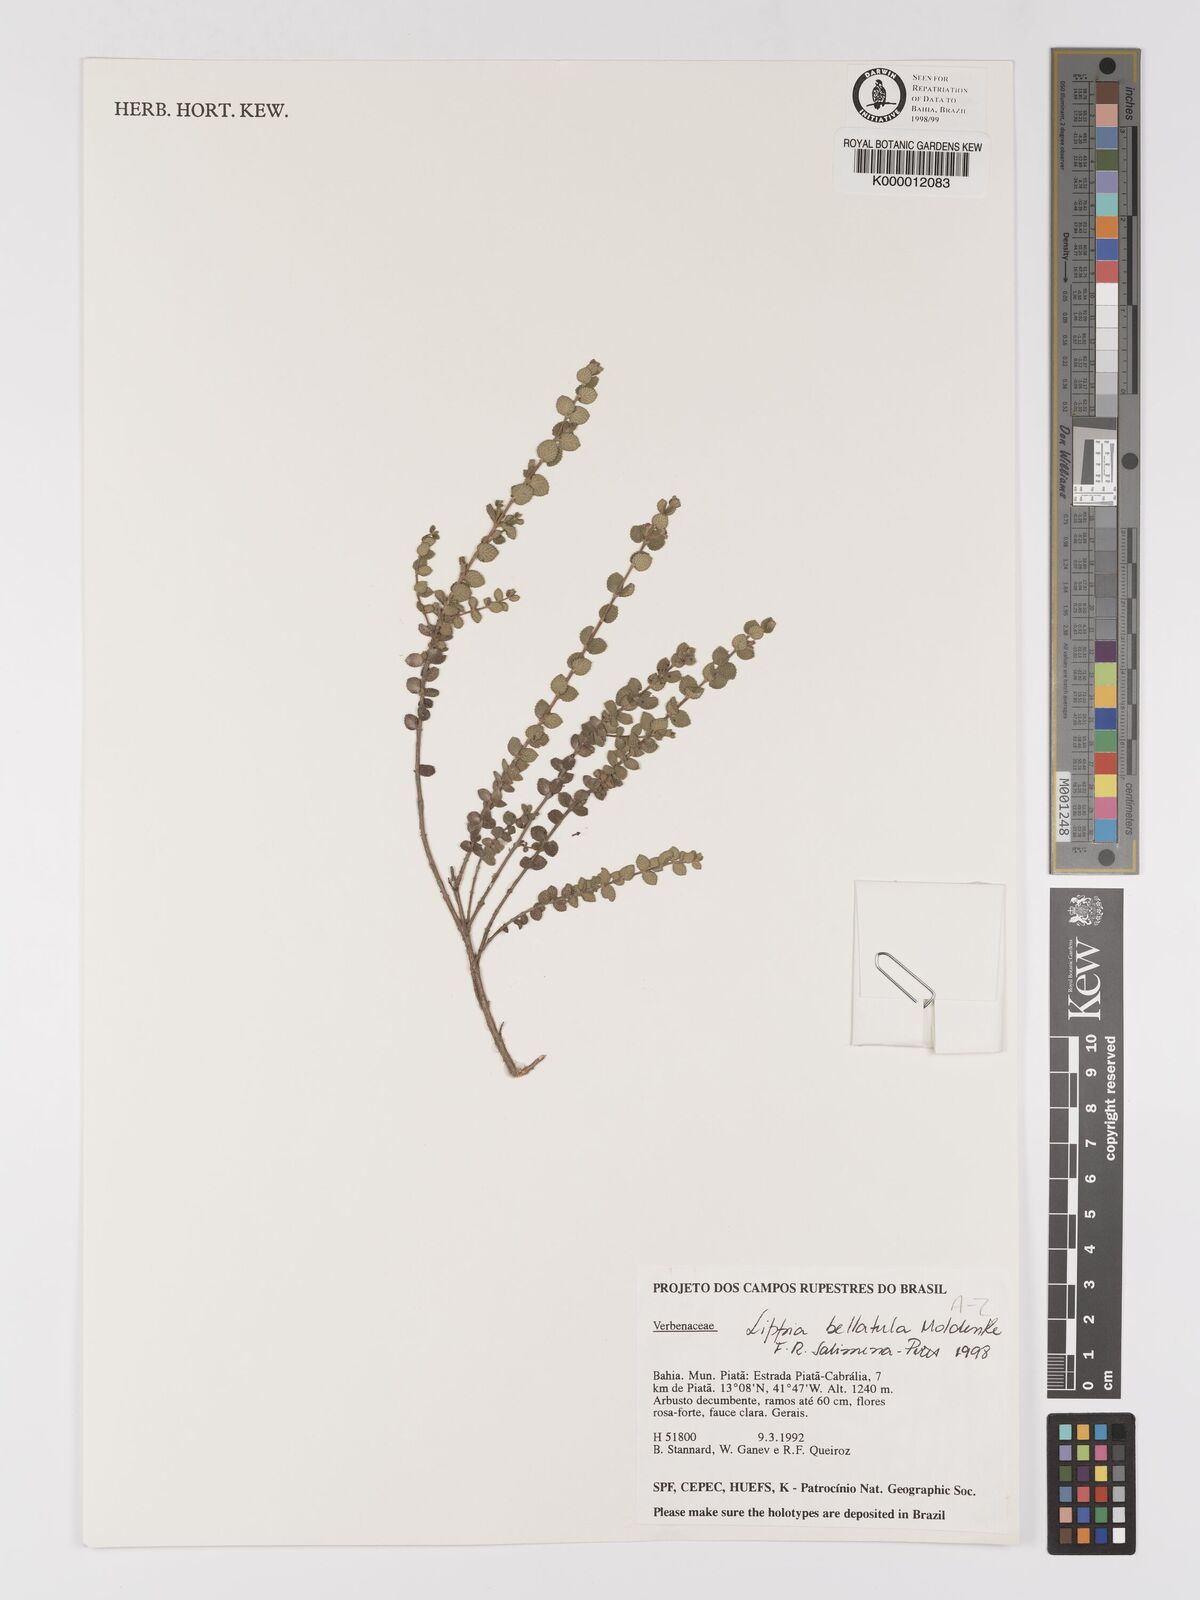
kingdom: Plantae
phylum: Tracheophyta
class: Magnoliopsida
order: Lamiales
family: Verbenaceae
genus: Lippia
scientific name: Lippia bellatula
